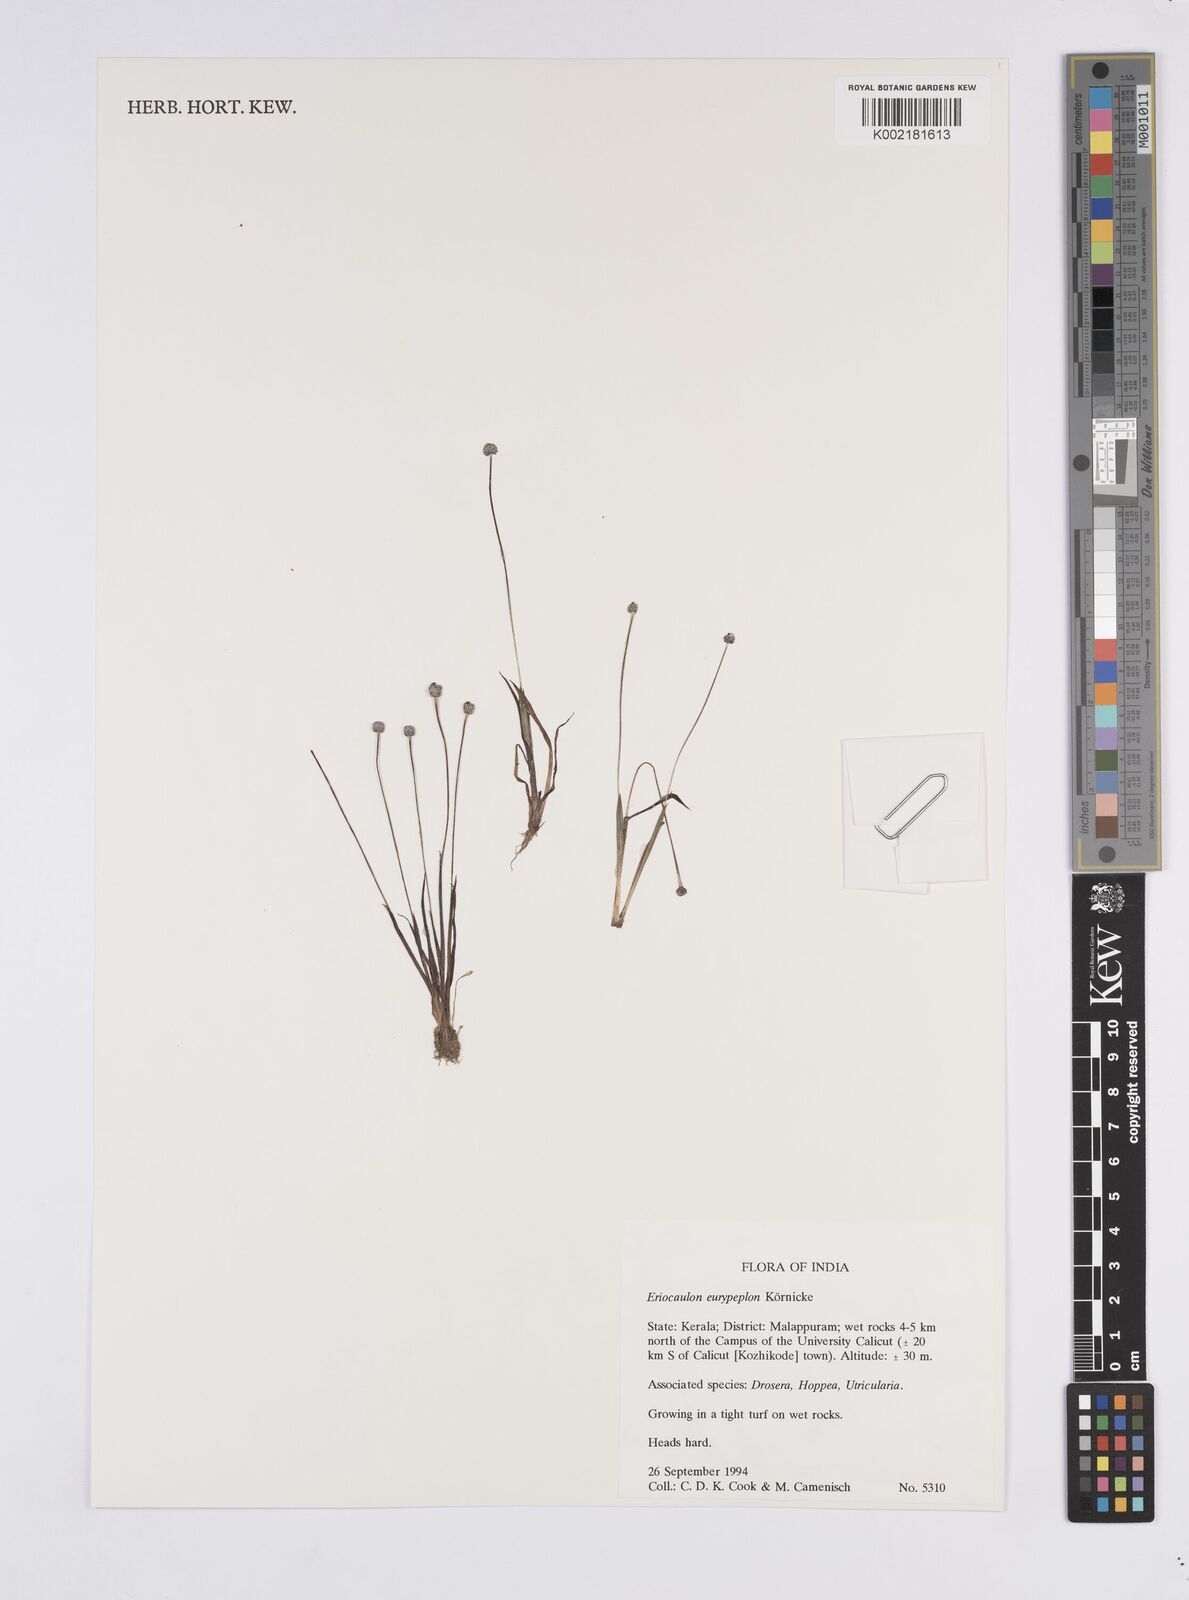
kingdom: Plantae
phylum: Tracheophyta
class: Liliopsida
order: Poales
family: Eriocaulaceae
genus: Eriocaulon
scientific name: Eriocaulon eurypeplon
